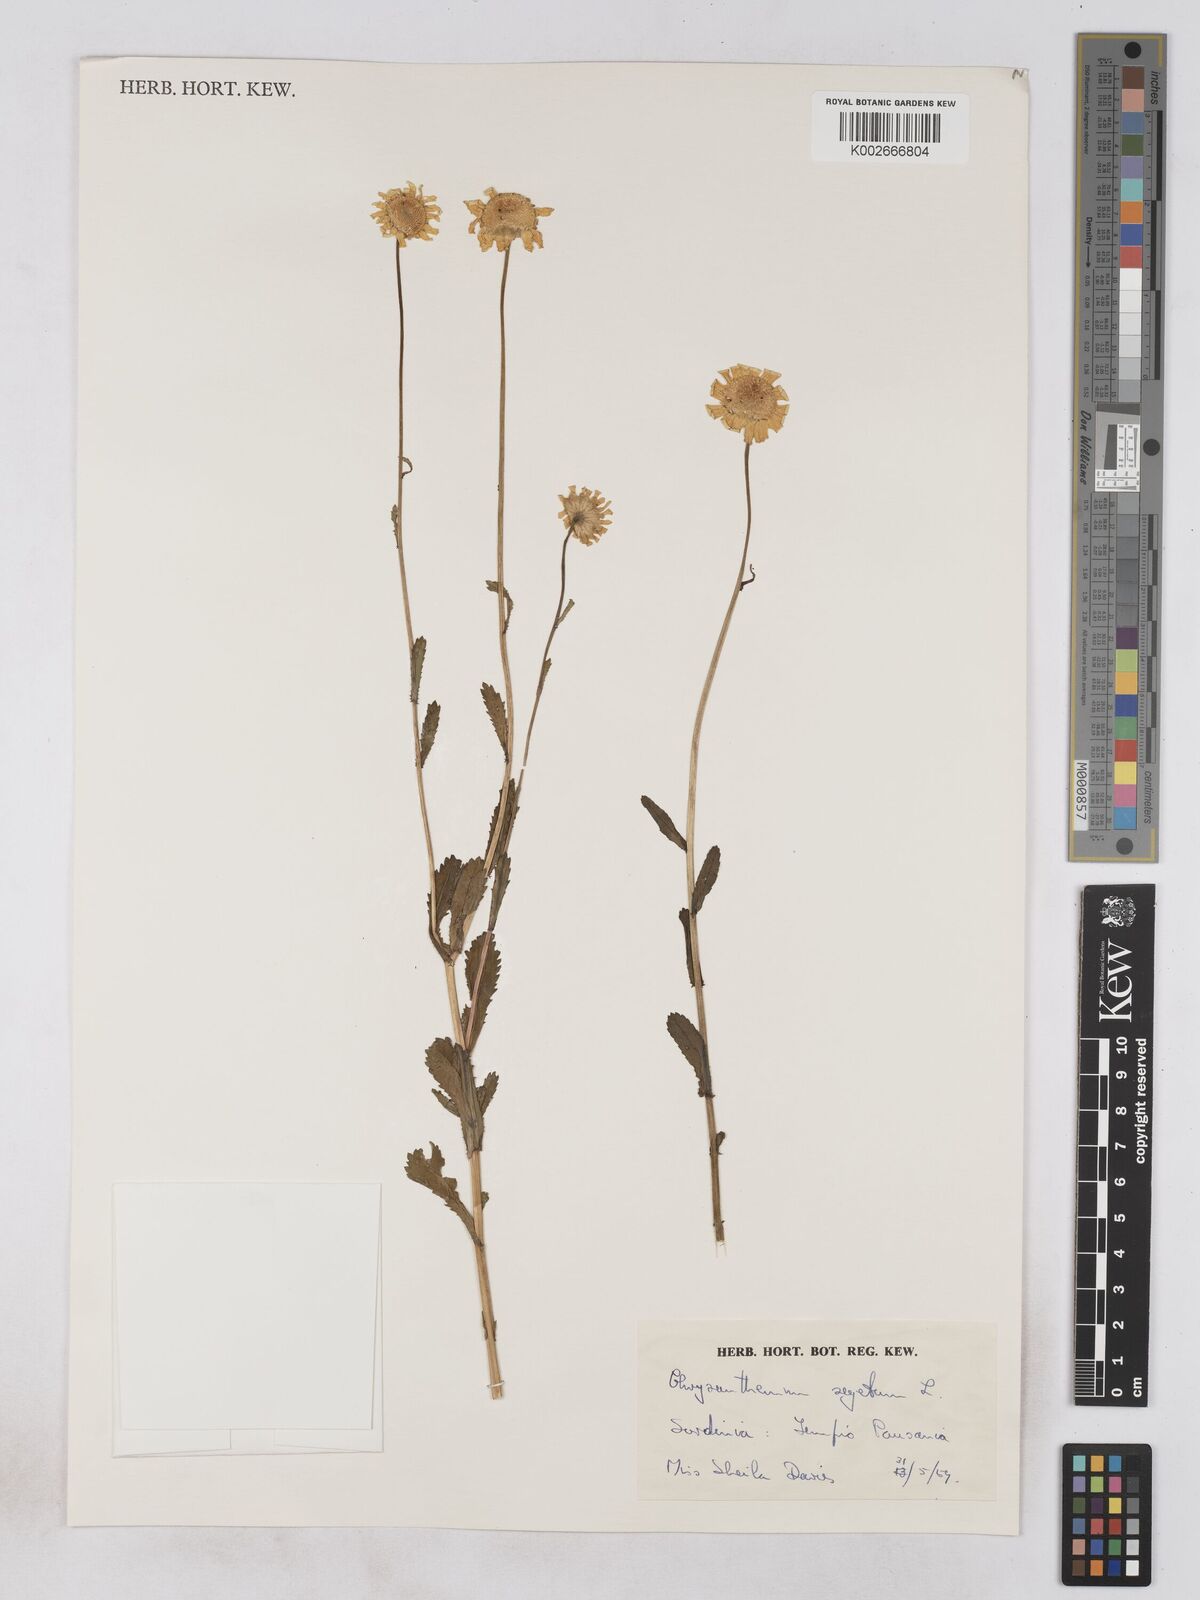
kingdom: Plantae
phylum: Tracheophyta
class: Magnoliopsida
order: Asterales
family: Asteraceae
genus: Glebionis
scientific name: Glebionis segetum
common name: Corndaisy
